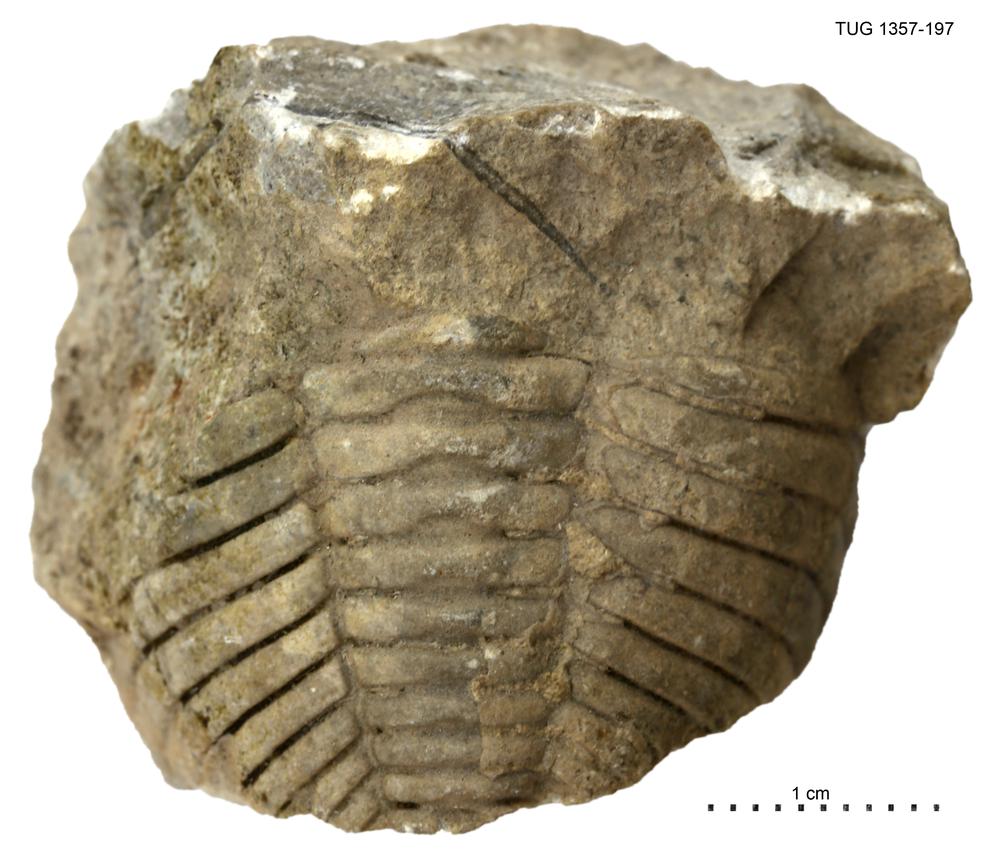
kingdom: Animalia
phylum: Arthropoda
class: Trilobita
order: Phacopida
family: Pterygometopidae
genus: Toxochasmops
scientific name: Toxochasmops
